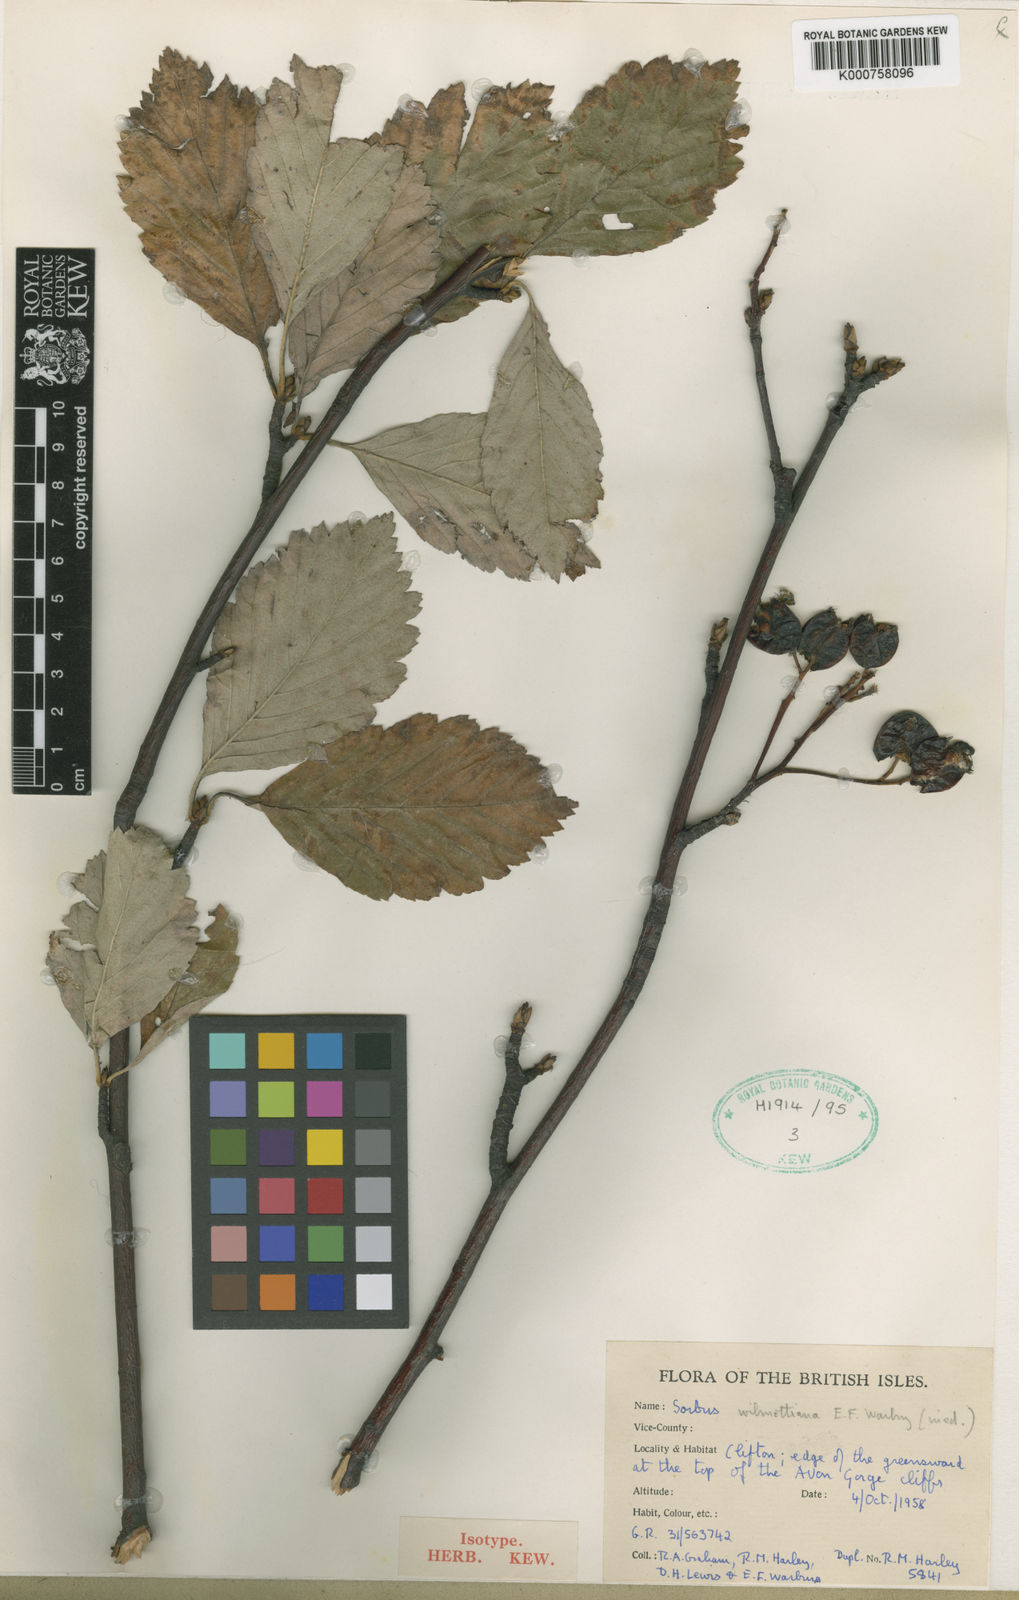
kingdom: Plantae
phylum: Tracheophyta
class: Magnoliopsida
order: Rosales
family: Rosaceae
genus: Aria
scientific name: Aria wilmottiana
